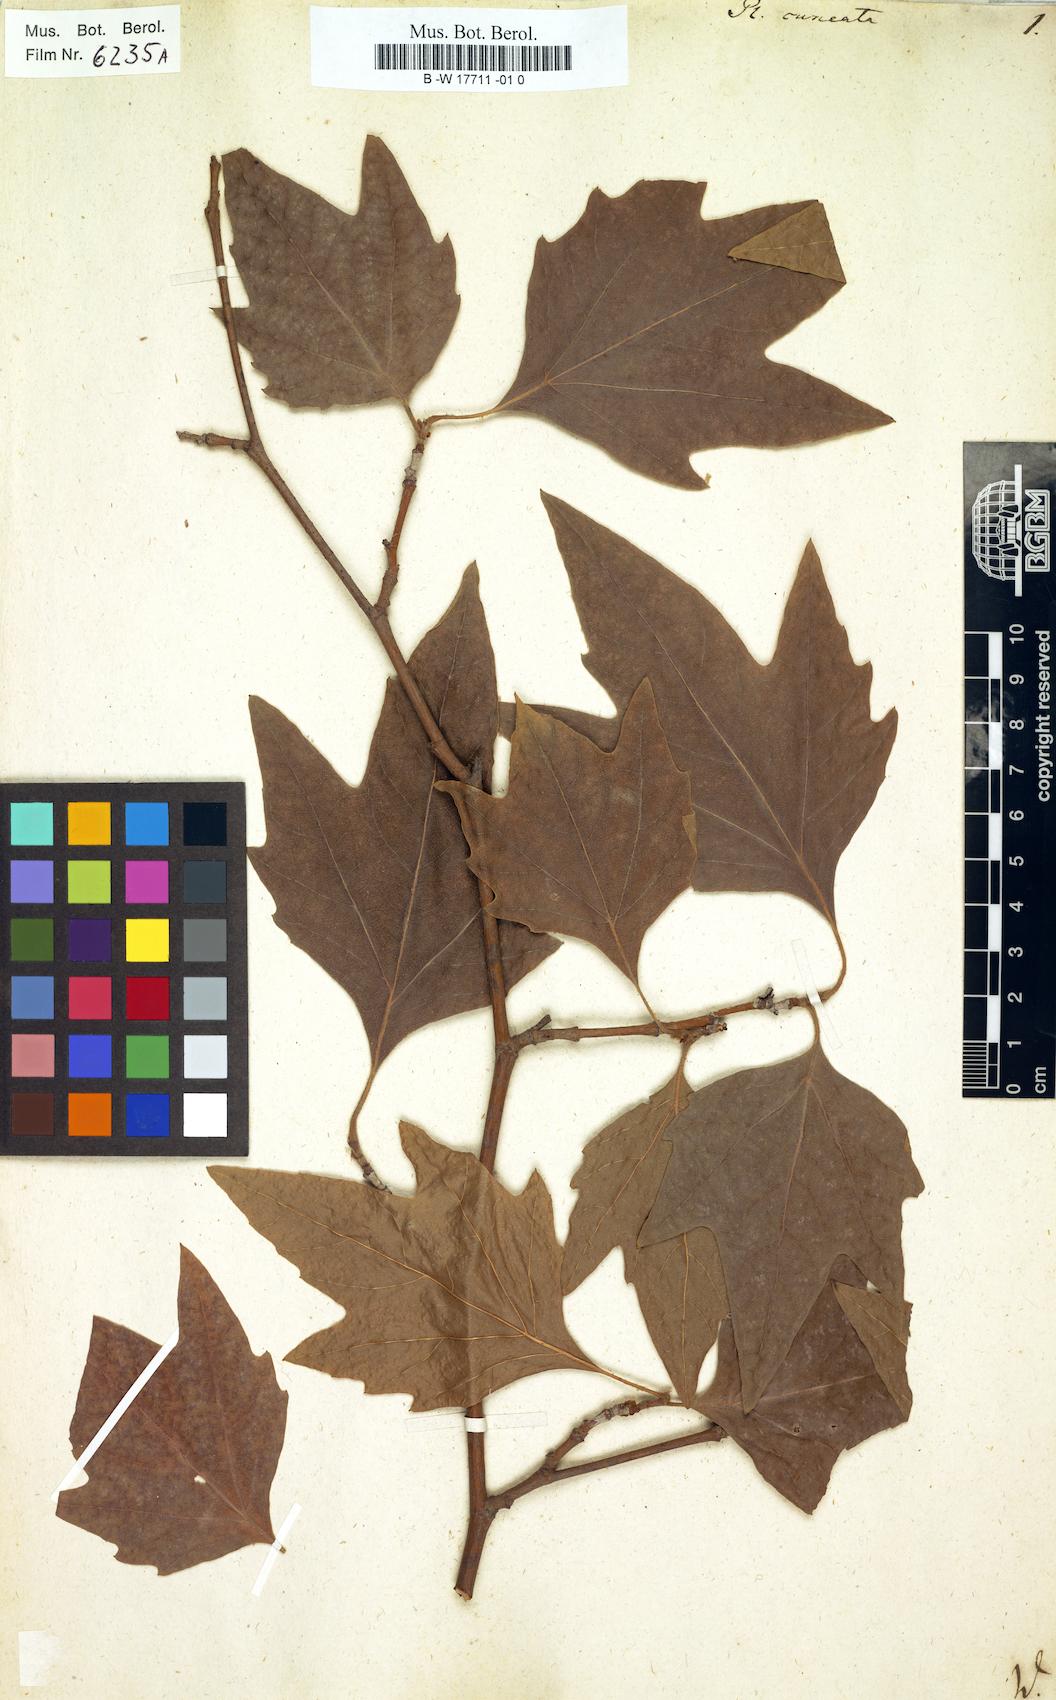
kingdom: Plantae
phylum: Tracheophyta
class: Magnoliopsida
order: Proteales
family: Platanaceae
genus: Platanus
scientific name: Platanus
